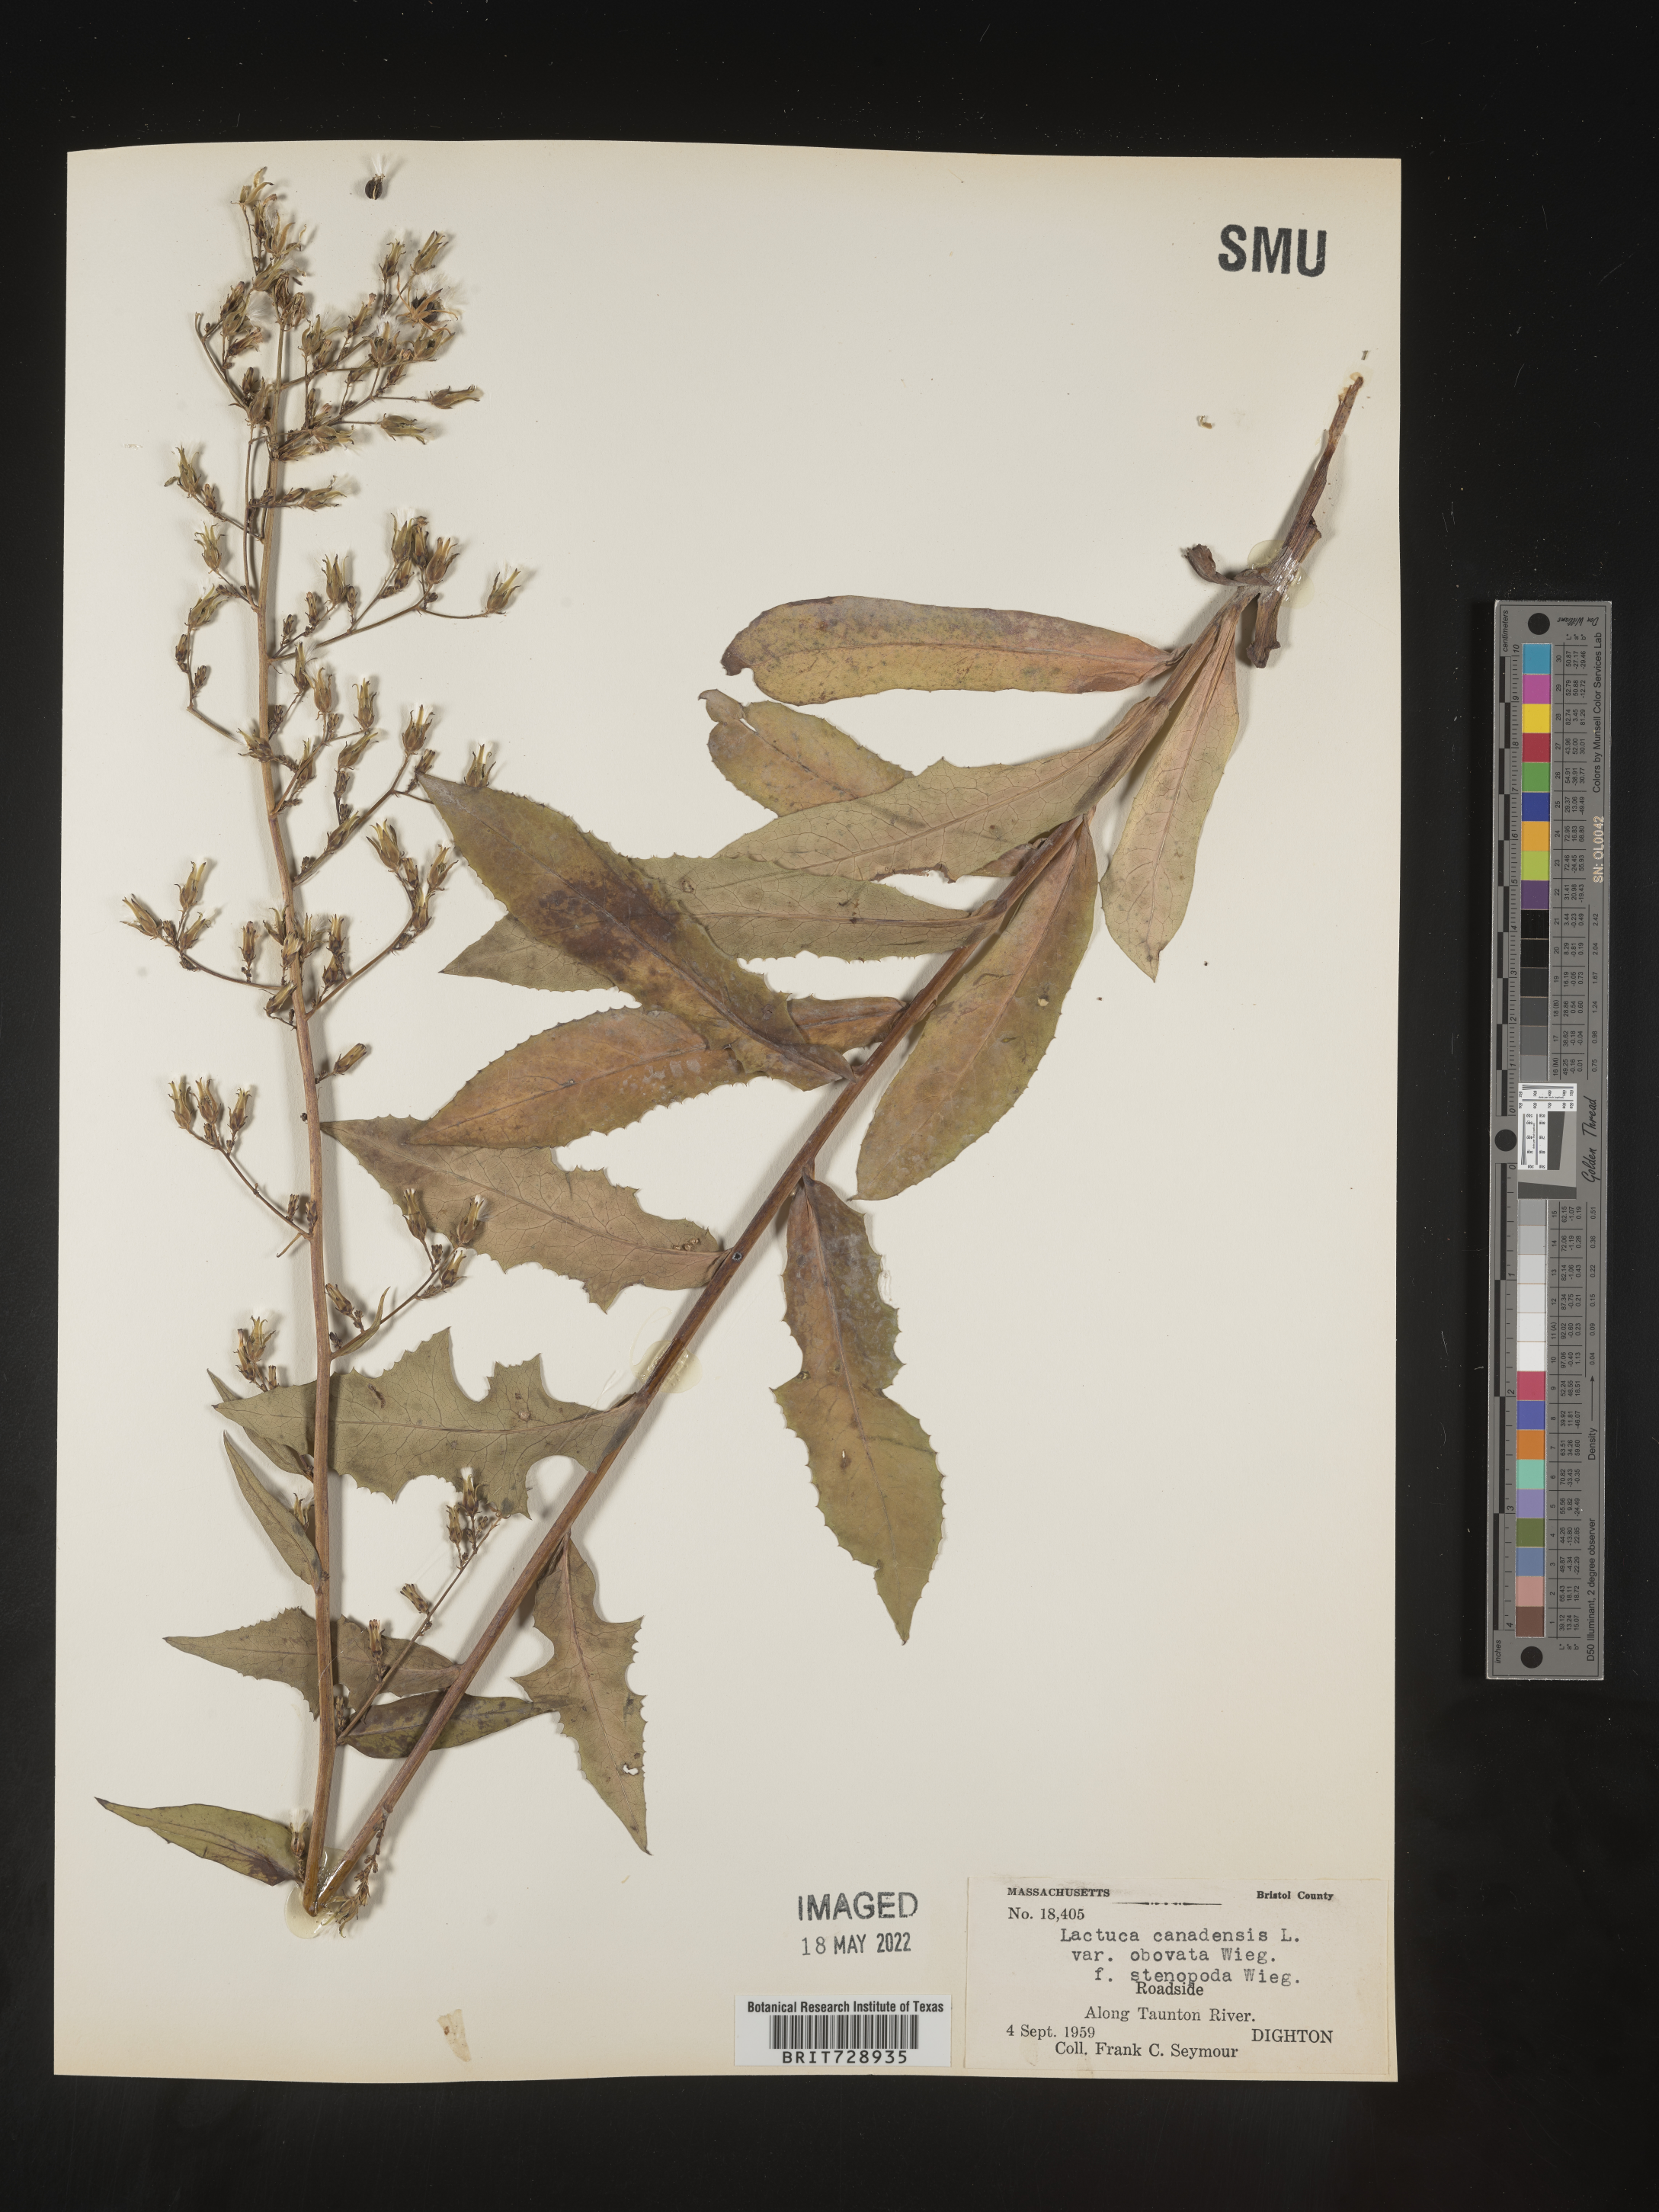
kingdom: Plantae
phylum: Tracheophyta
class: Magnoliopsida
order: Asterales
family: Asteraceae
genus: Lactuca
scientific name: Lactuca canadensis
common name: Canada lettuce
